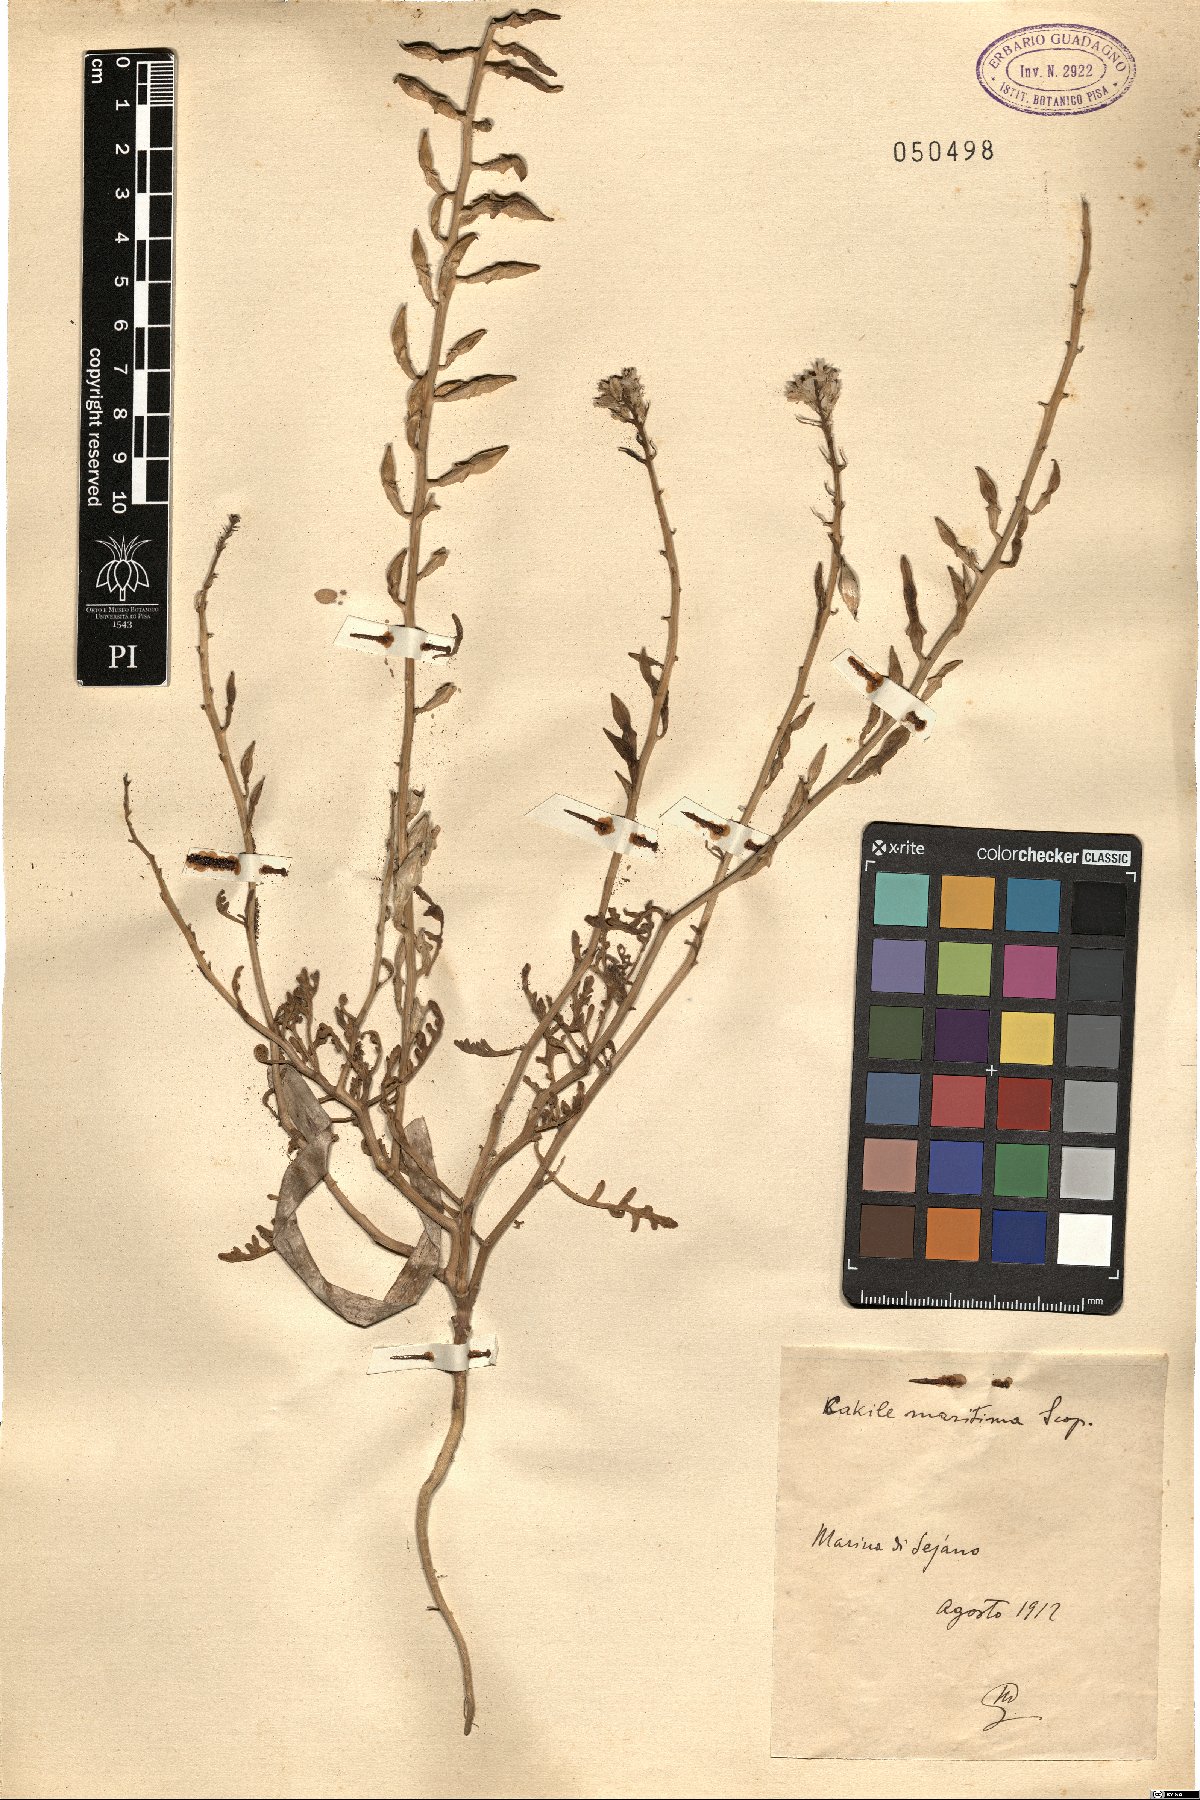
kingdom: Plantae
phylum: Tracheophyta
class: Magnoliopsida
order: Brassicales
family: Brassicaceae
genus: Cakile
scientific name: Cakile maritima
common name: Sea rocket
